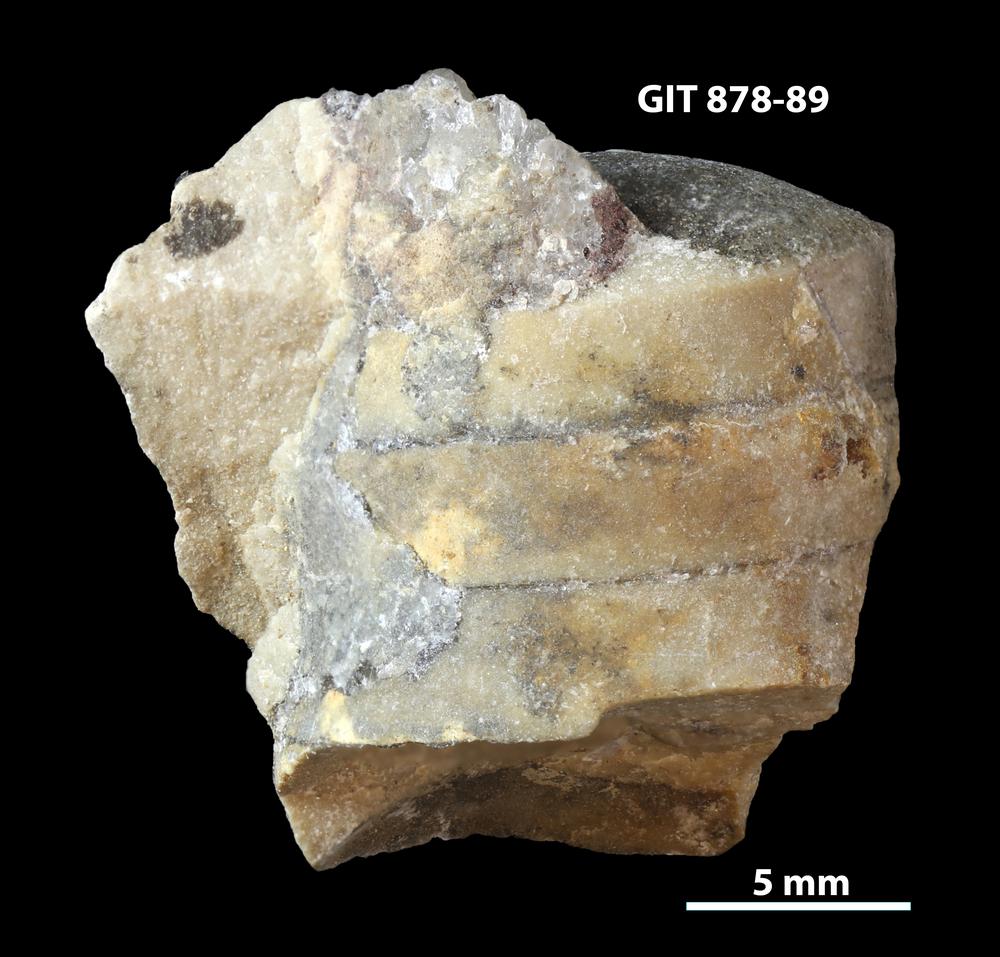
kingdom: Animalia
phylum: Mollusca
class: Cephalopoda
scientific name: Cephalopoda
